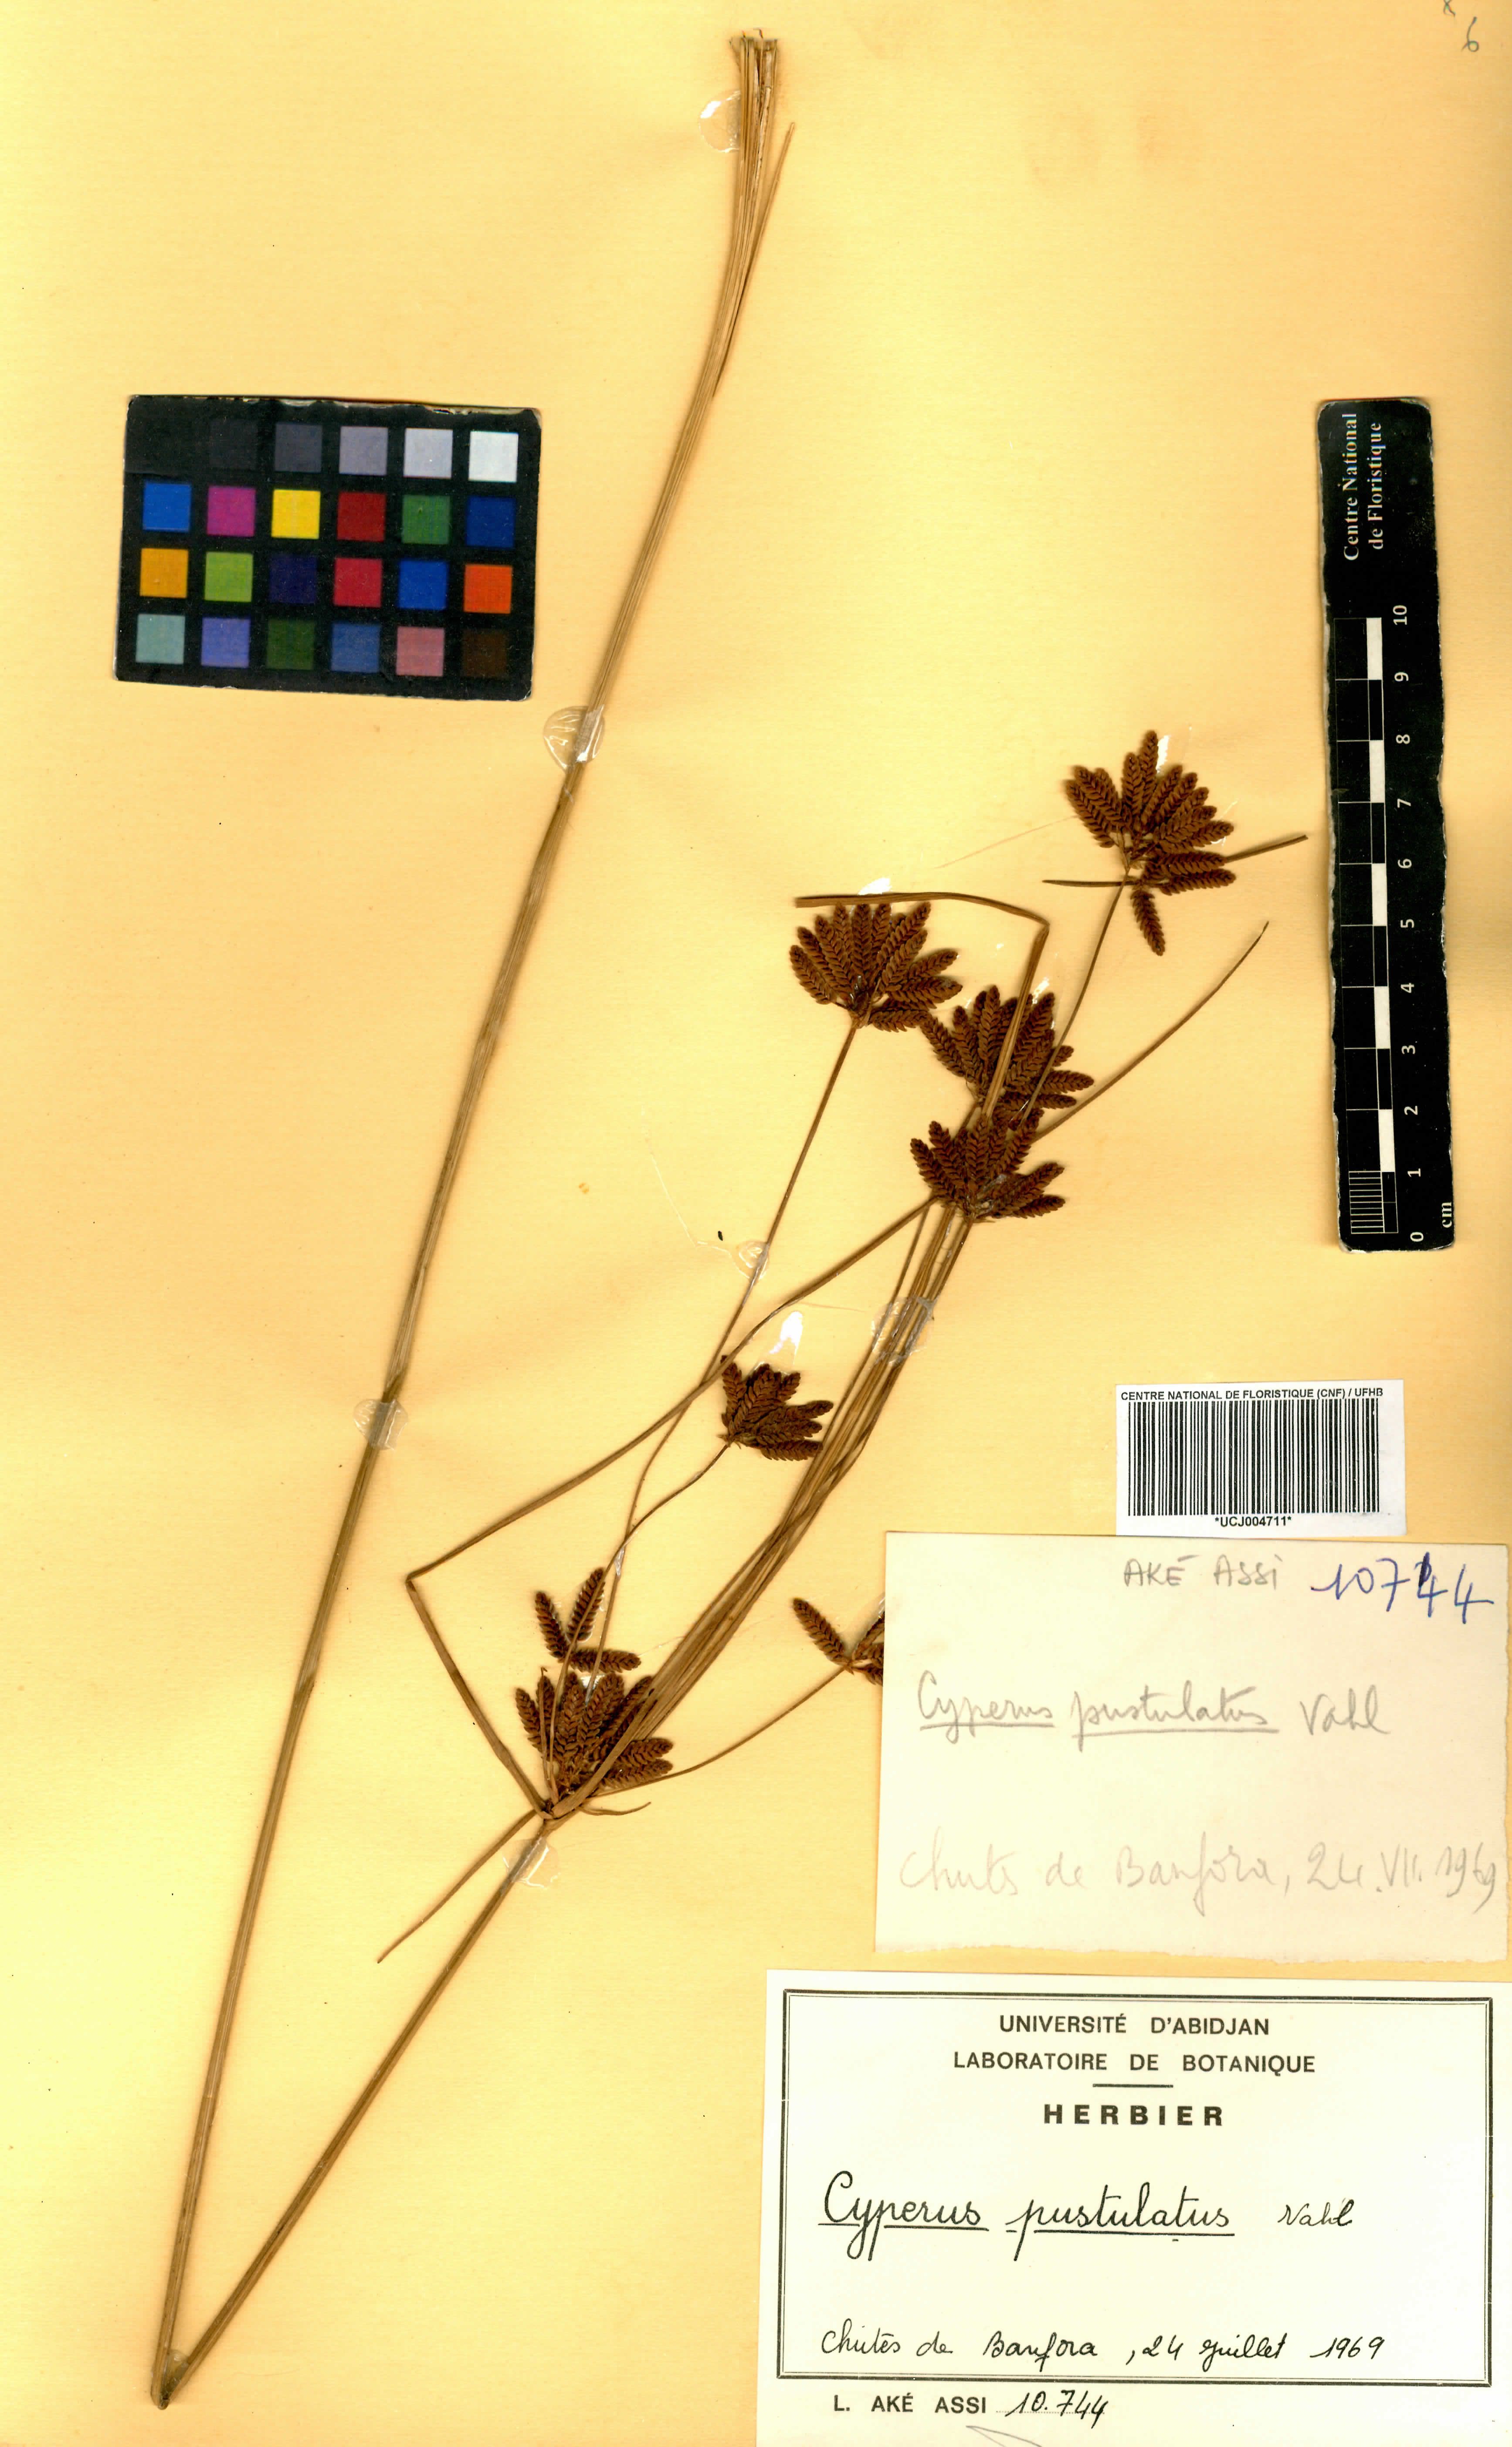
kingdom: Plantae
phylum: Tracheophyta
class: Liliopsida
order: Poales
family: Cyperaceae
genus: Cyperus
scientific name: Cyperus pustulatus
